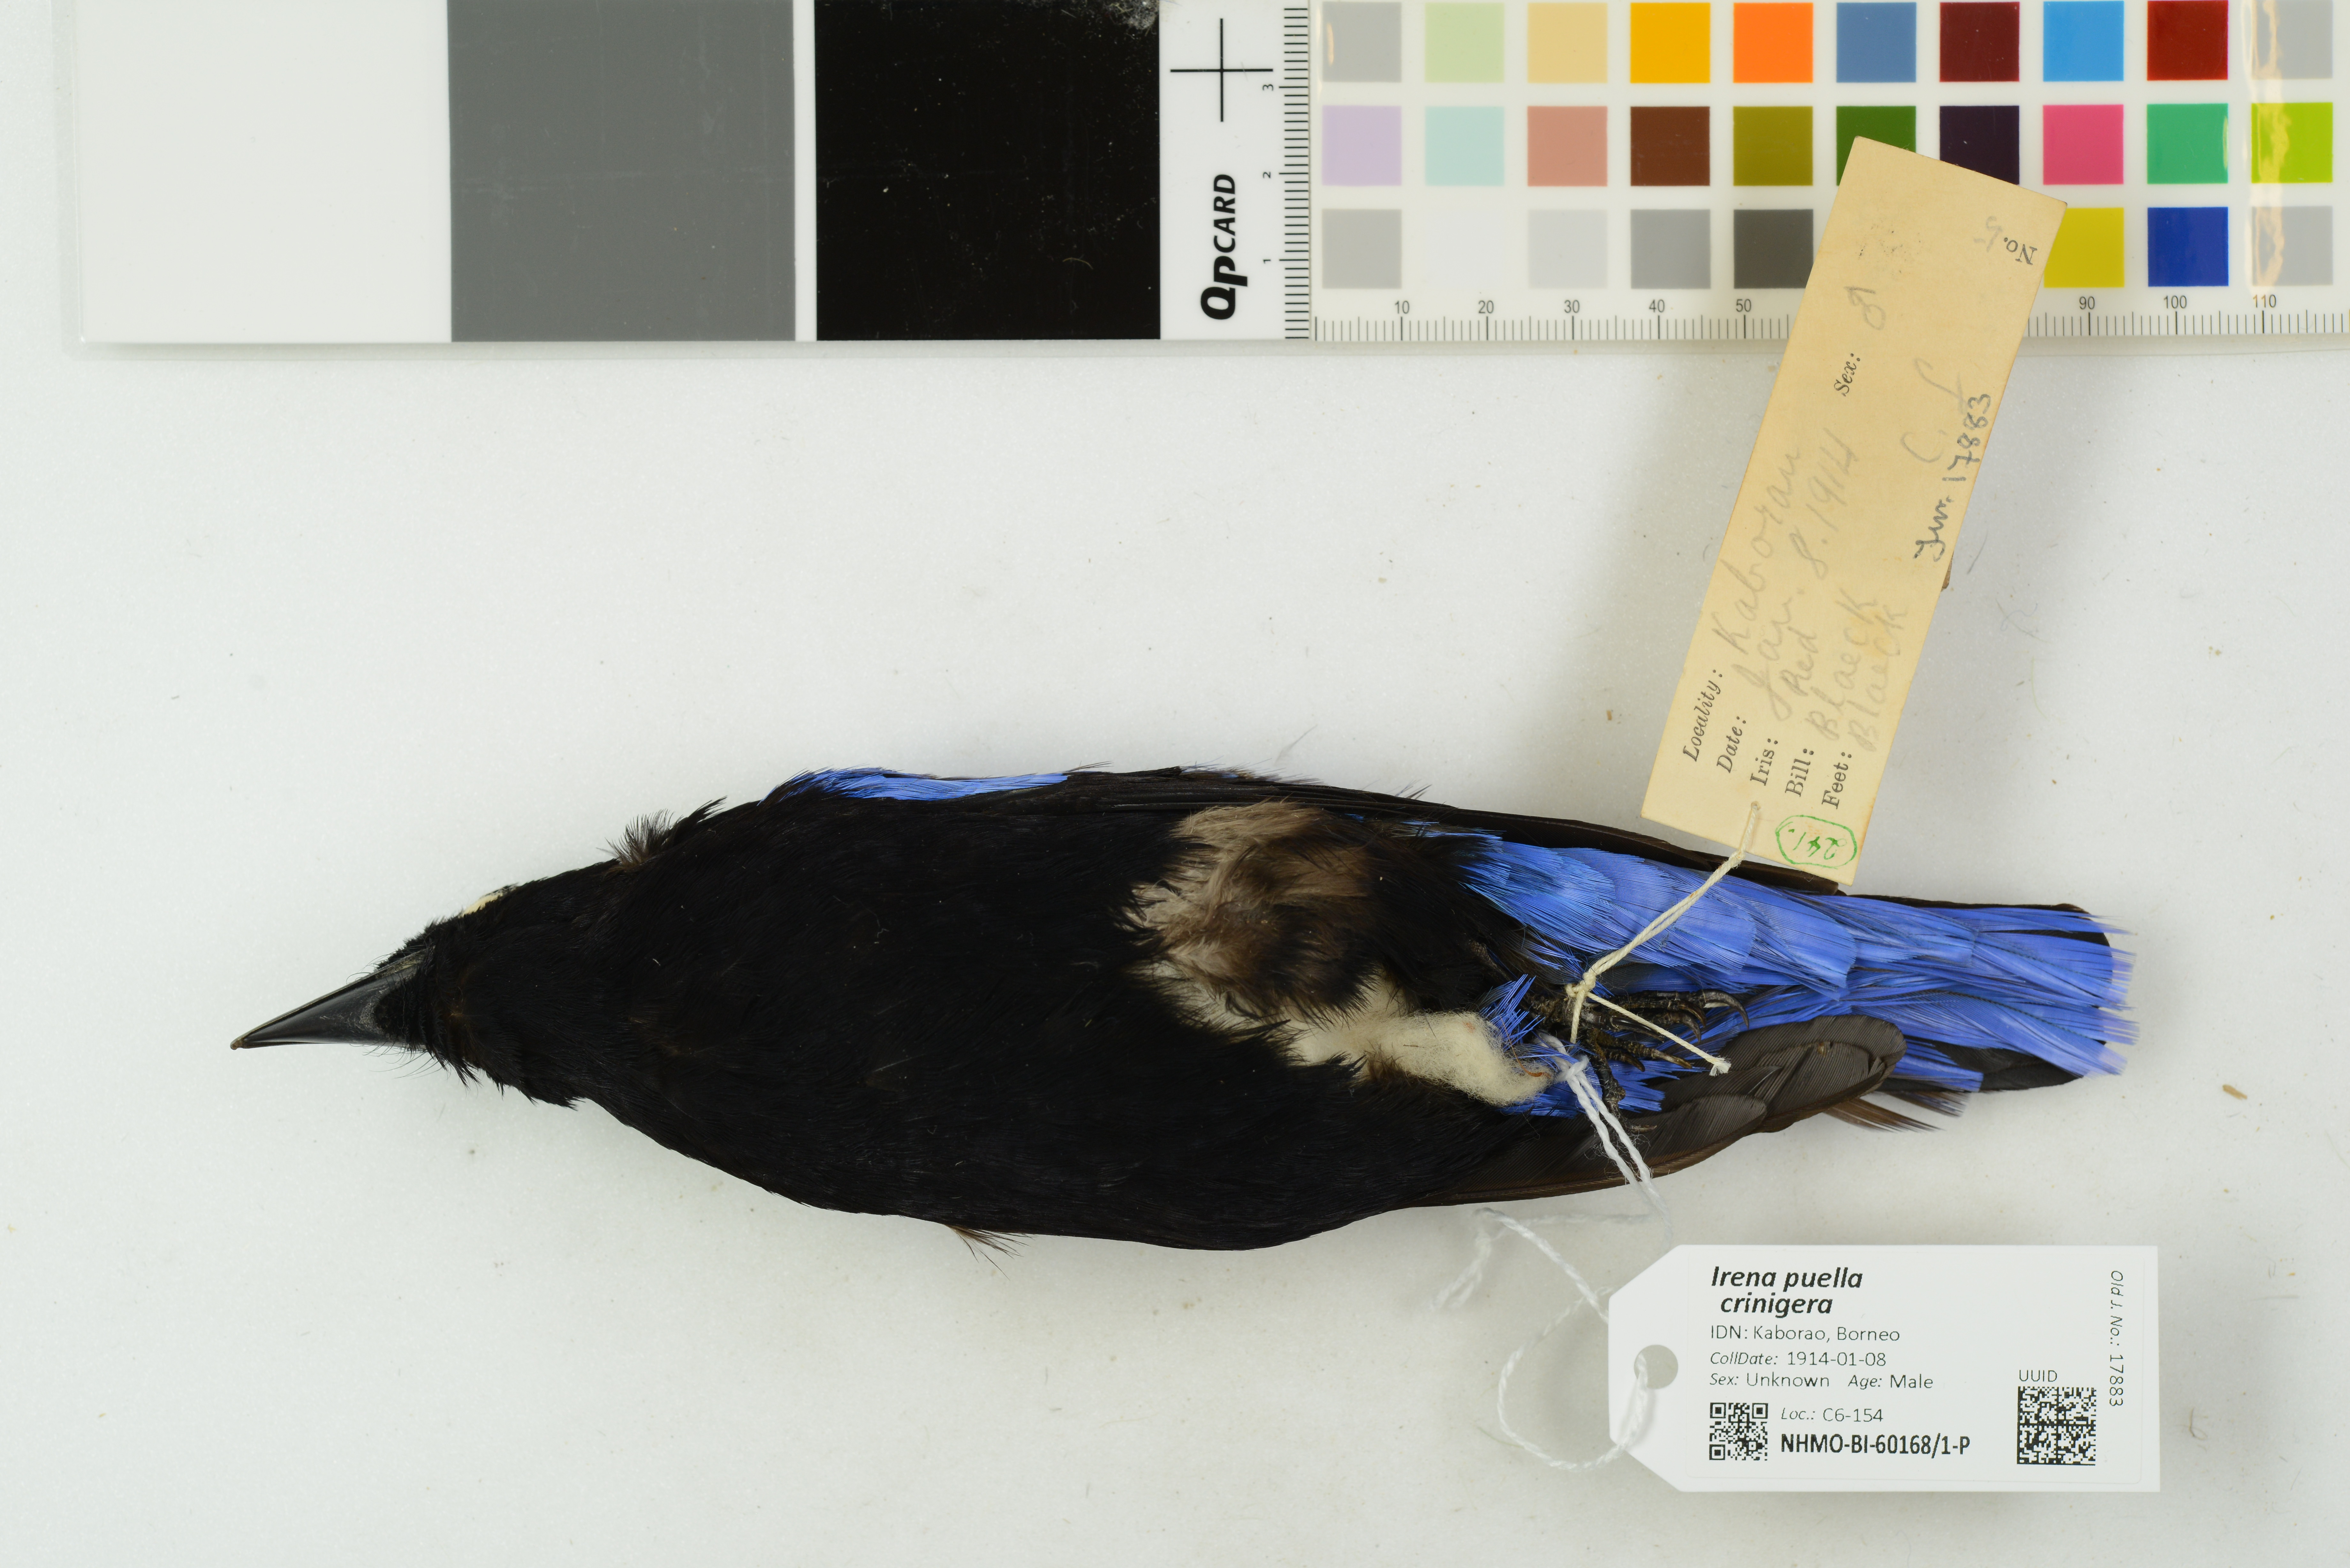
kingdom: Animalia
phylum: Chordata
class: Aves
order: Passeriformes
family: Irenidae
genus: Irena
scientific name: Irena puella
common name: Asian fairy-bluebird
